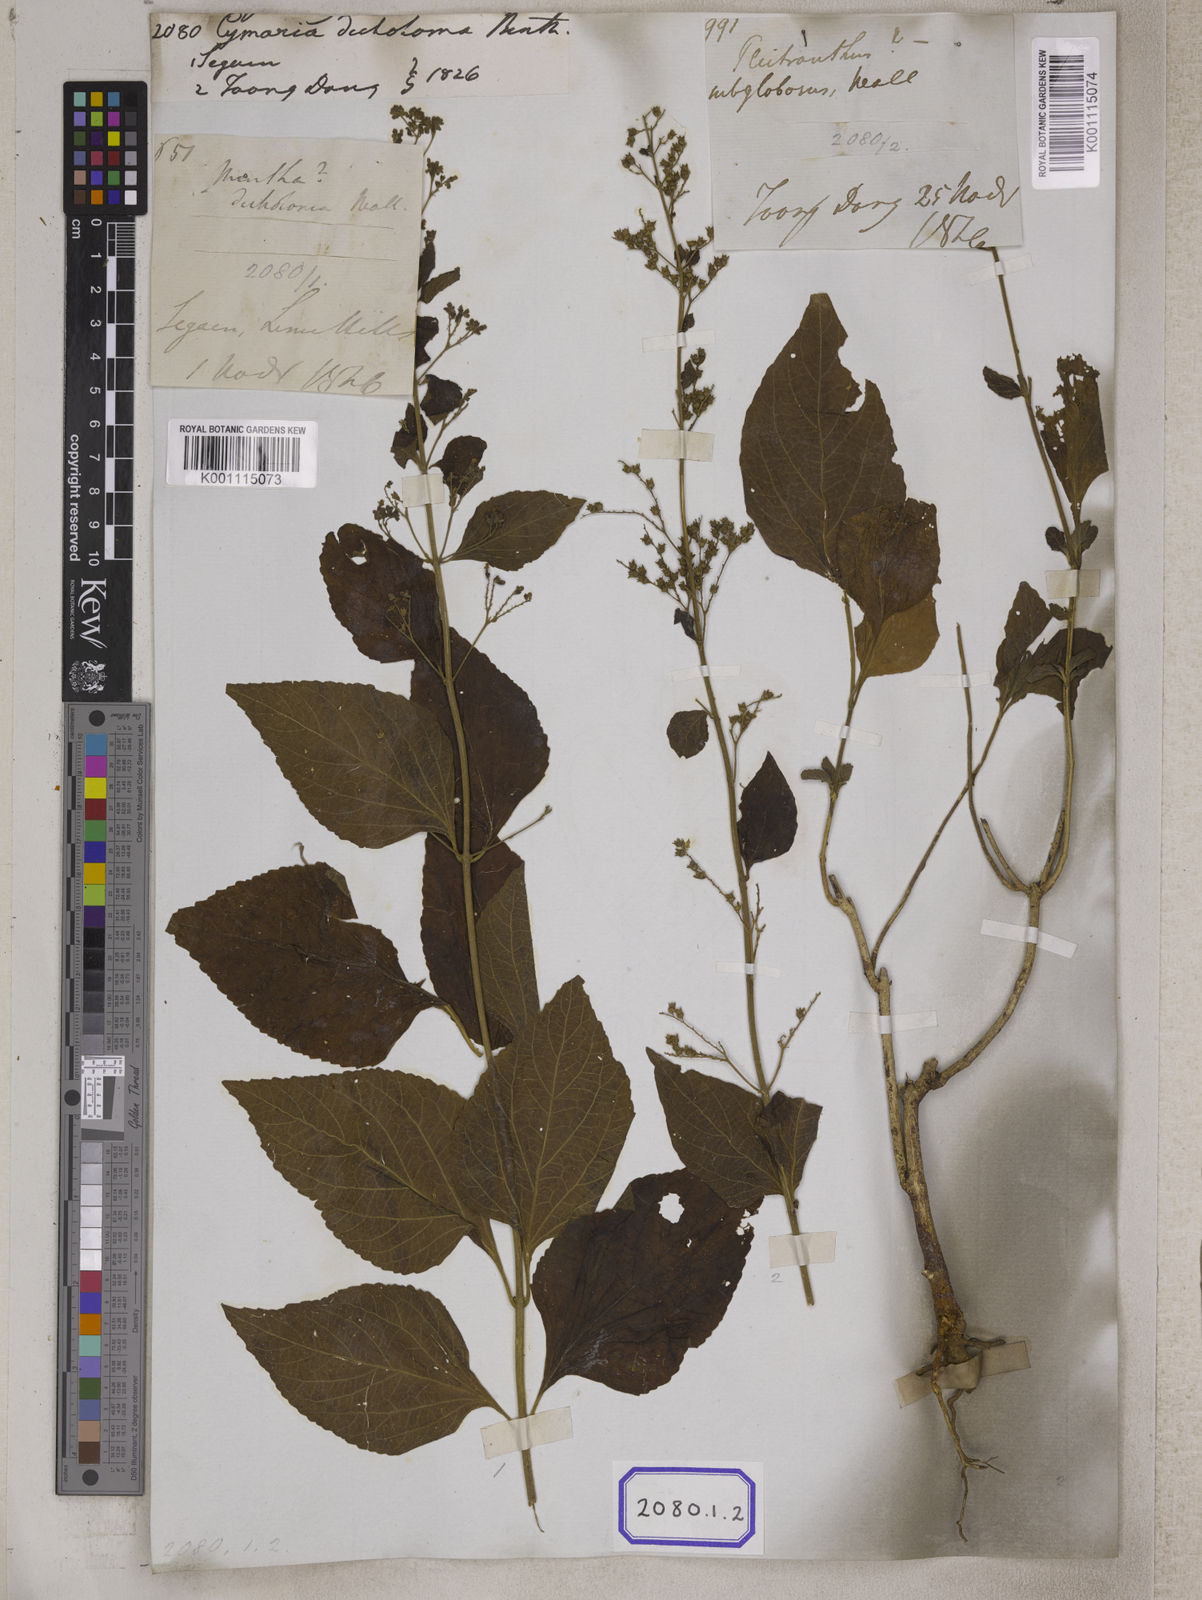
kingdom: Plantae
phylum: Tracheophyta
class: Magnoliopsida
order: Lamiales
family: Lamiaceae
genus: Cymaria
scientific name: Cymaria dichotoma
